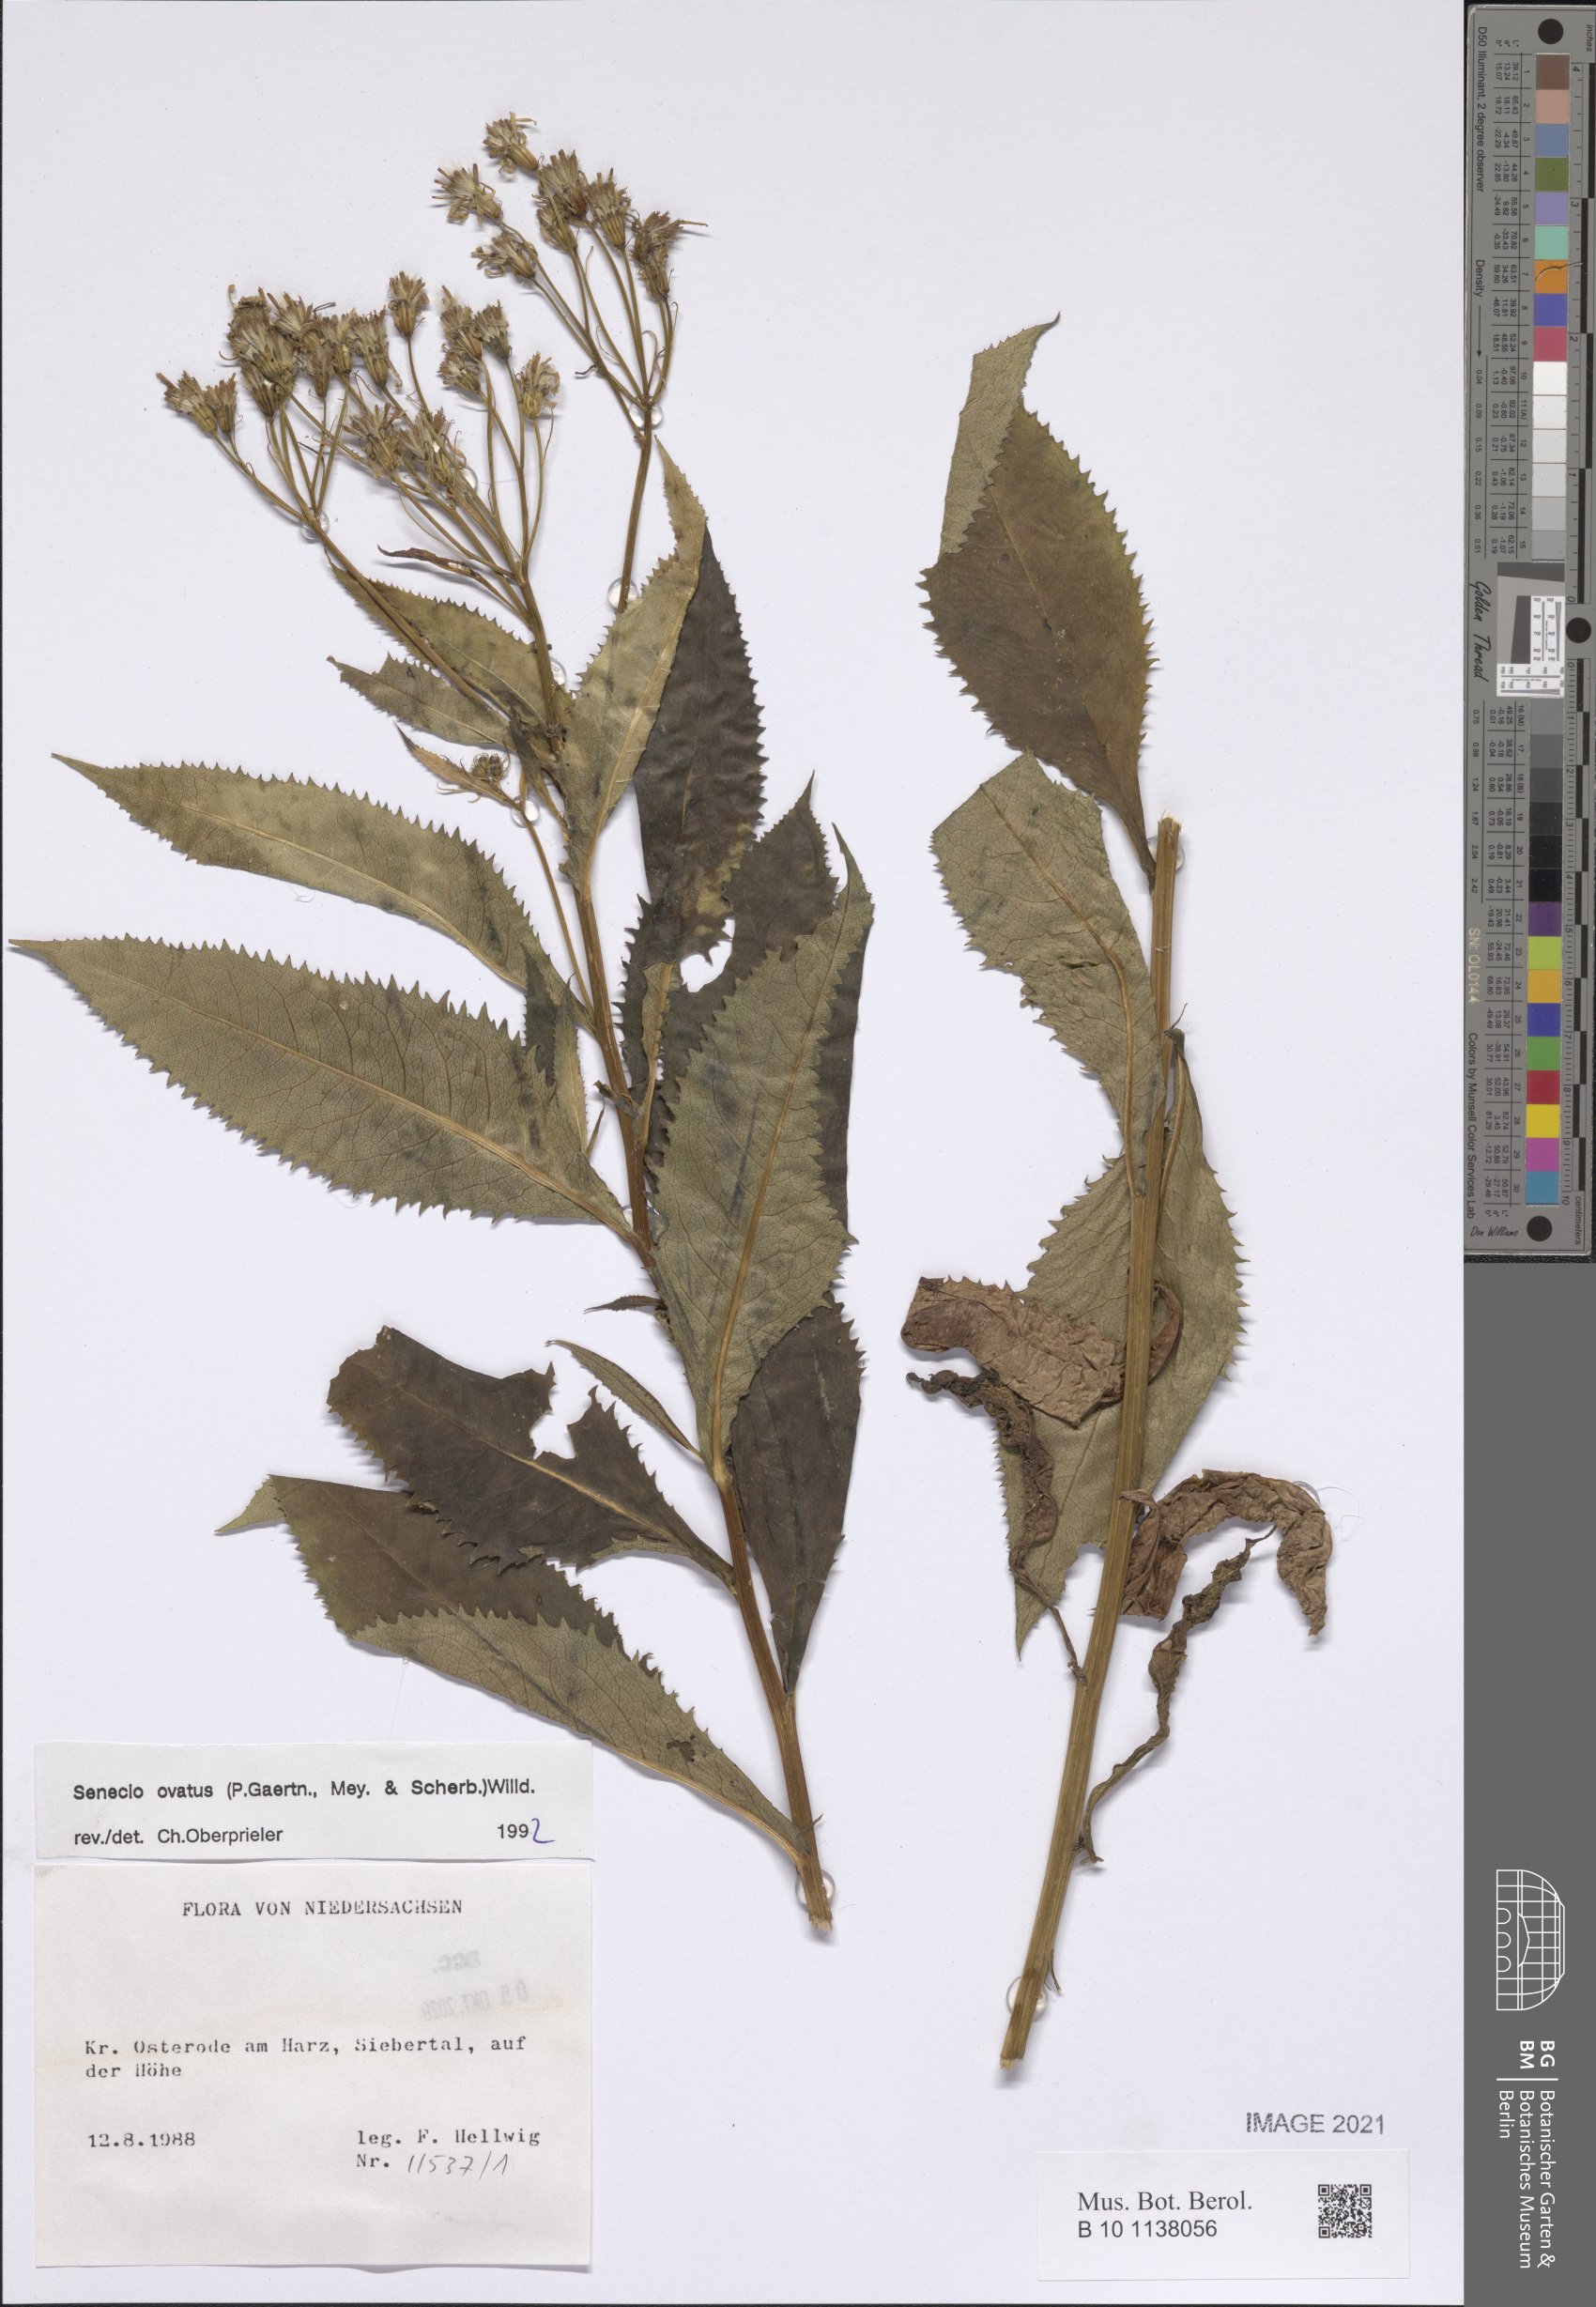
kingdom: Plantae
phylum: Tracheophyta
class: Magnoliopsida
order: Asterales
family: Asteraceae
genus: Senecio
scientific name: Senecio ovatus
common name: Wood ragwort
